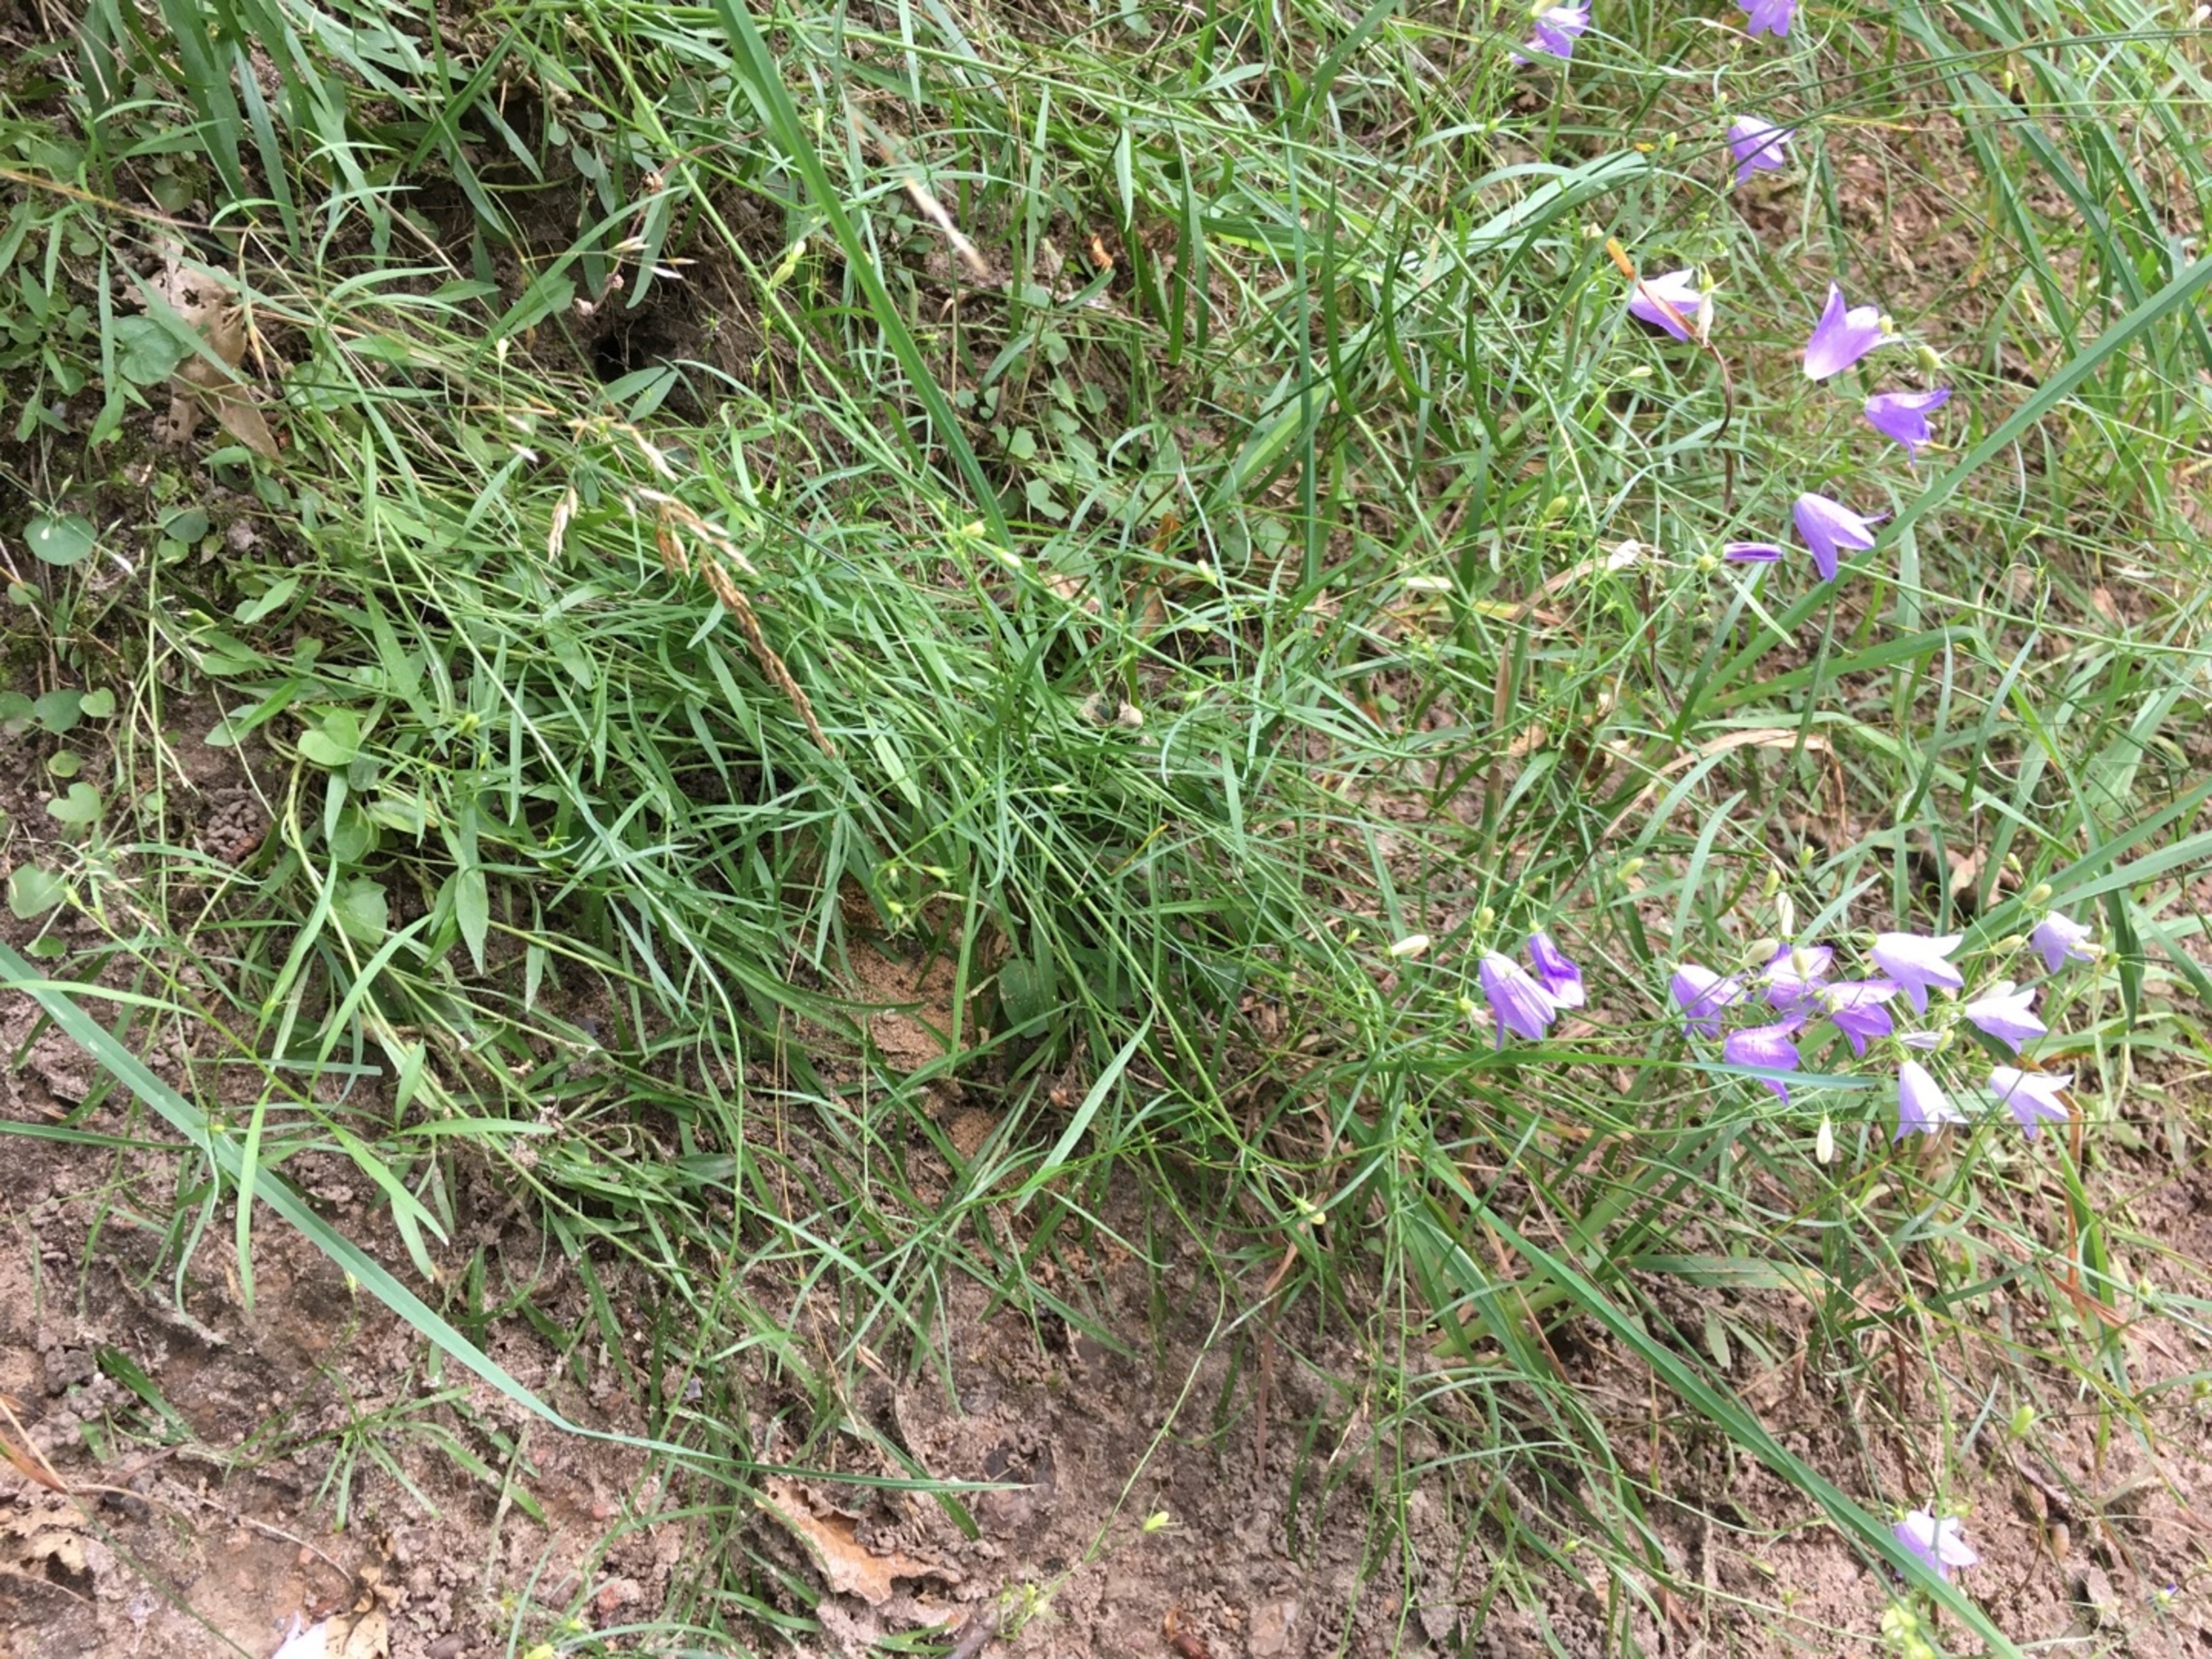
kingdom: Plantae
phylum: Tracheophyta
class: Magnoliopsida
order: Asterales
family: Campanulaceae
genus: Campanula
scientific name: Campanula rotundifolia
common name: Liden klokke
